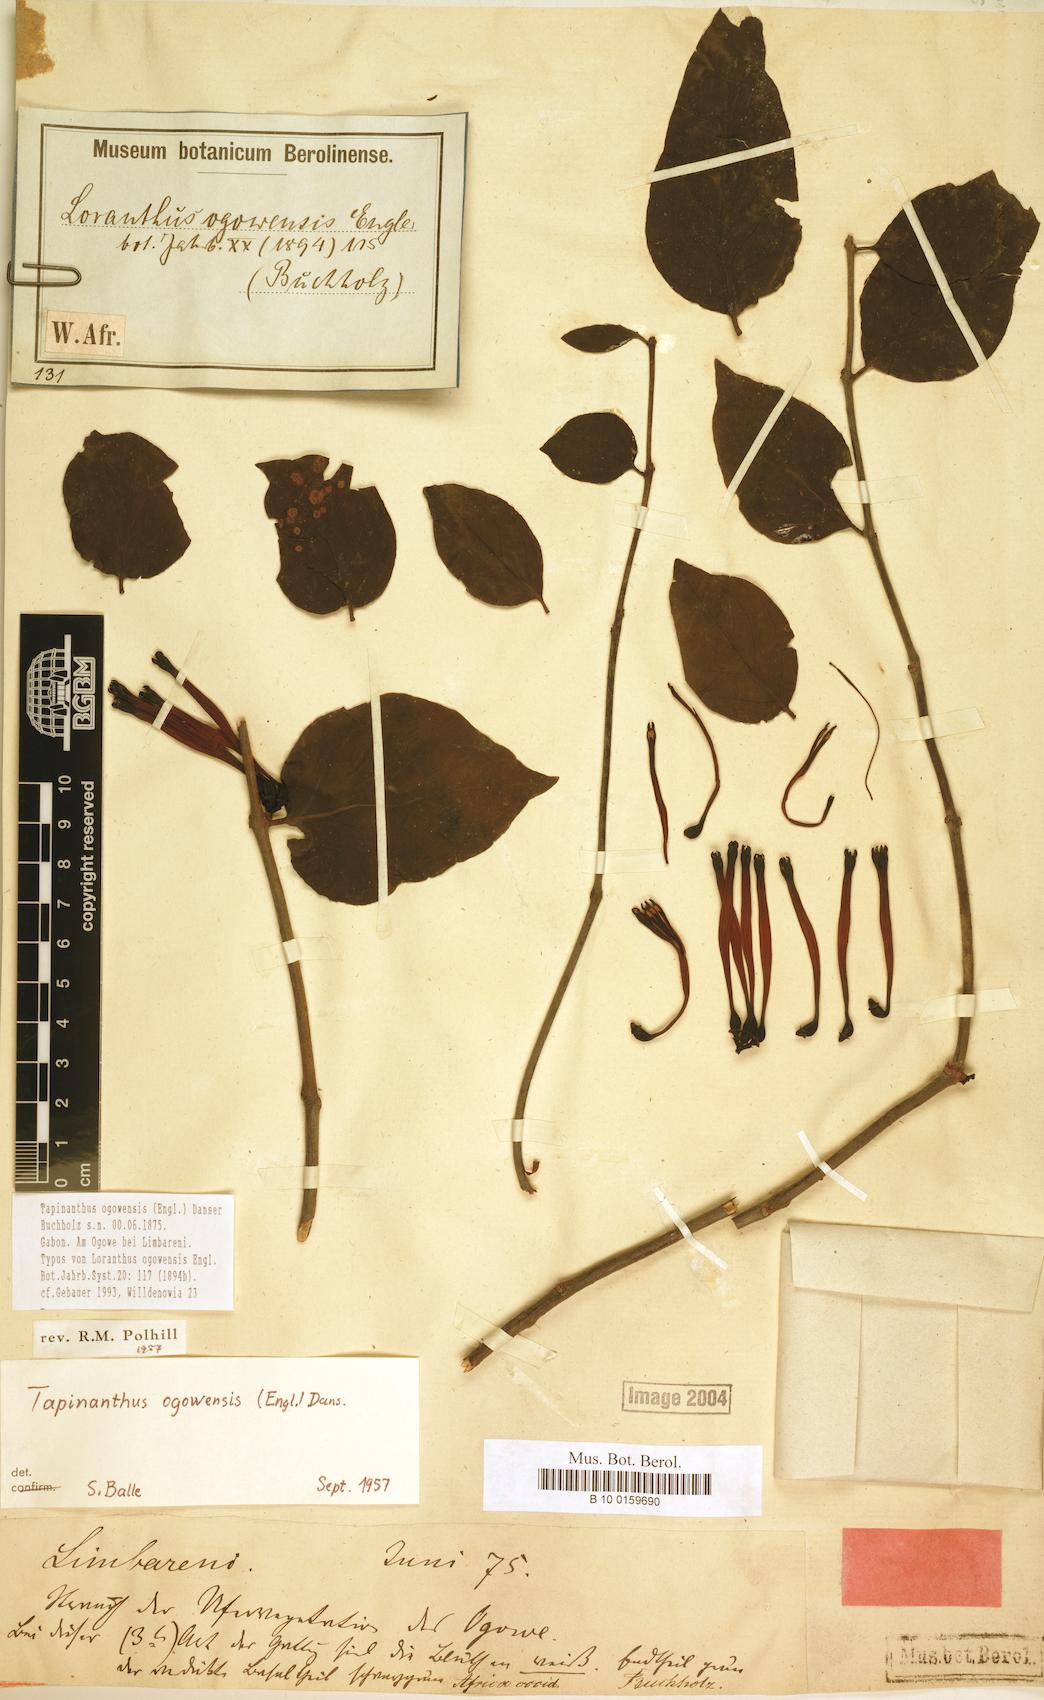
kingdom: Plantae
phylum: Tracheophyta
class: Magnoliopsida
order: Santalales
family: Loranthaceae
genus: Tapinanthus
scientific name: Tapinanthus ogowensis
